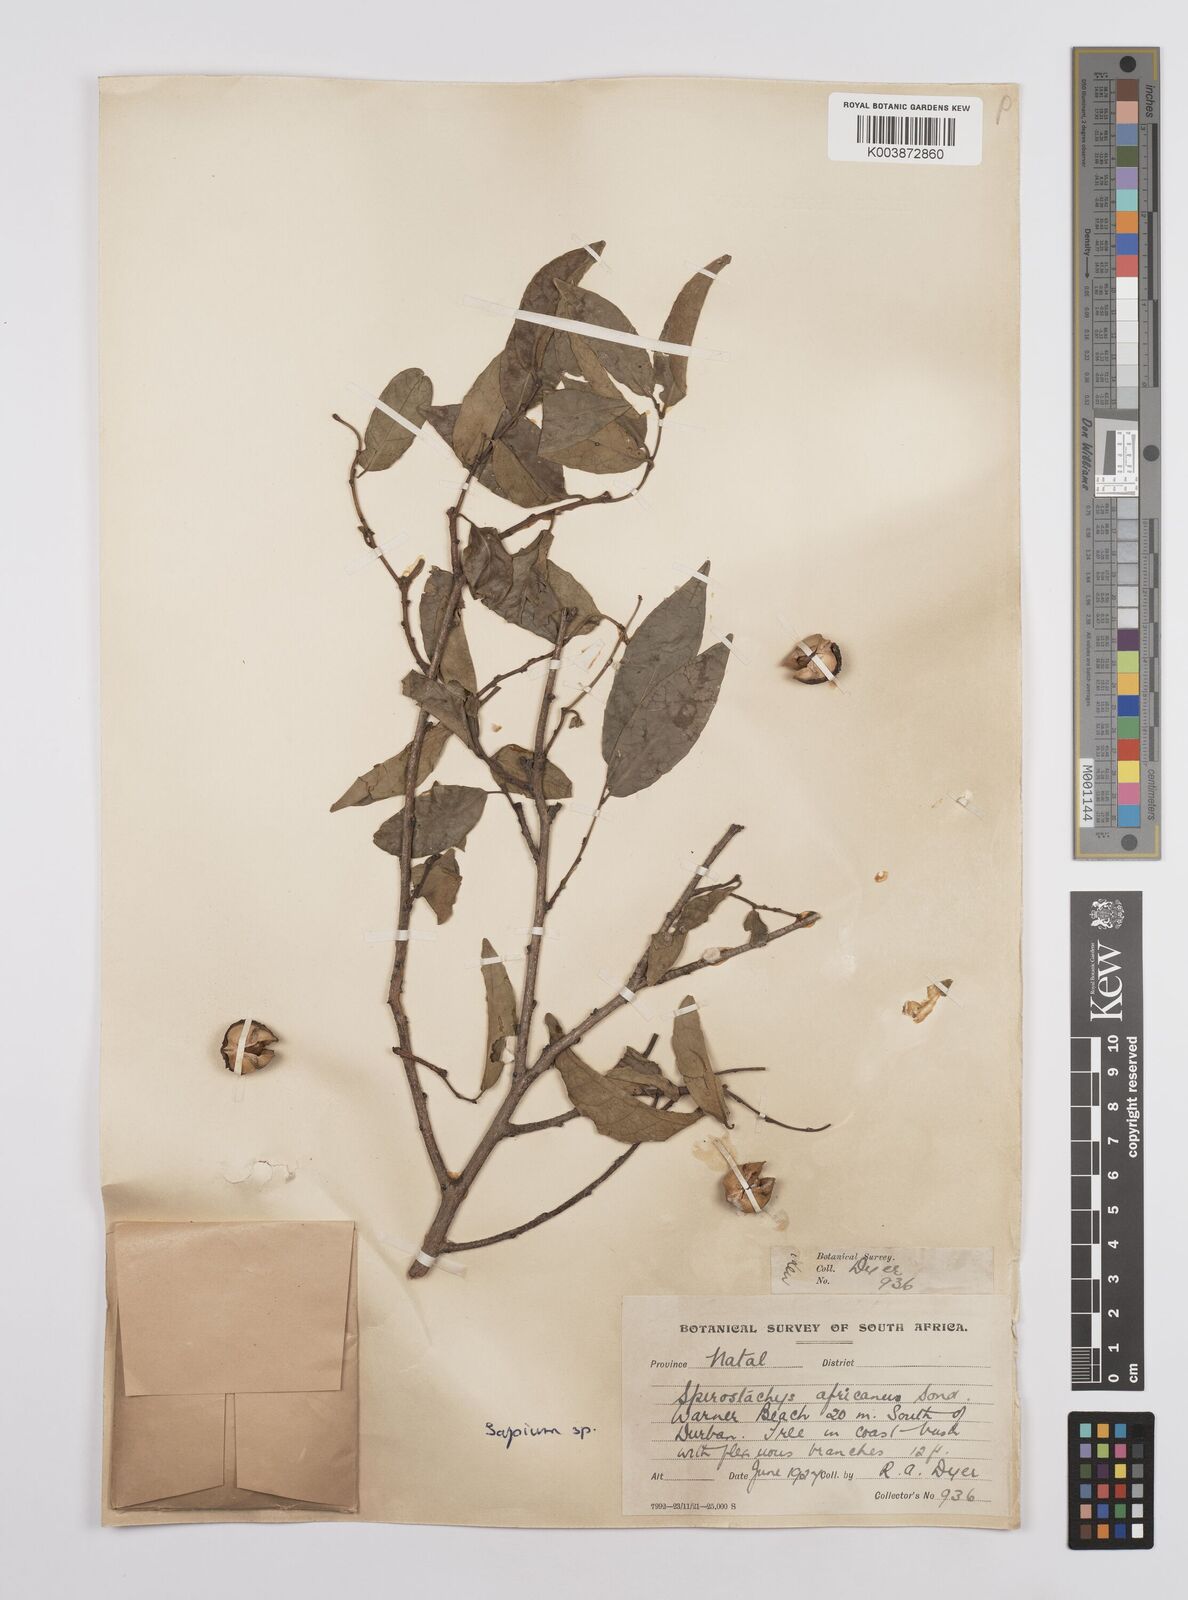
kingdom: Plantae
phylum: Tracheophyta
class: Magnoliopsida
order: Malpighiales
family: Euphorbiaceae
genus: Sclerocroton
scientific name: Sclerocroton integerrimus
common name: Duiker berry
